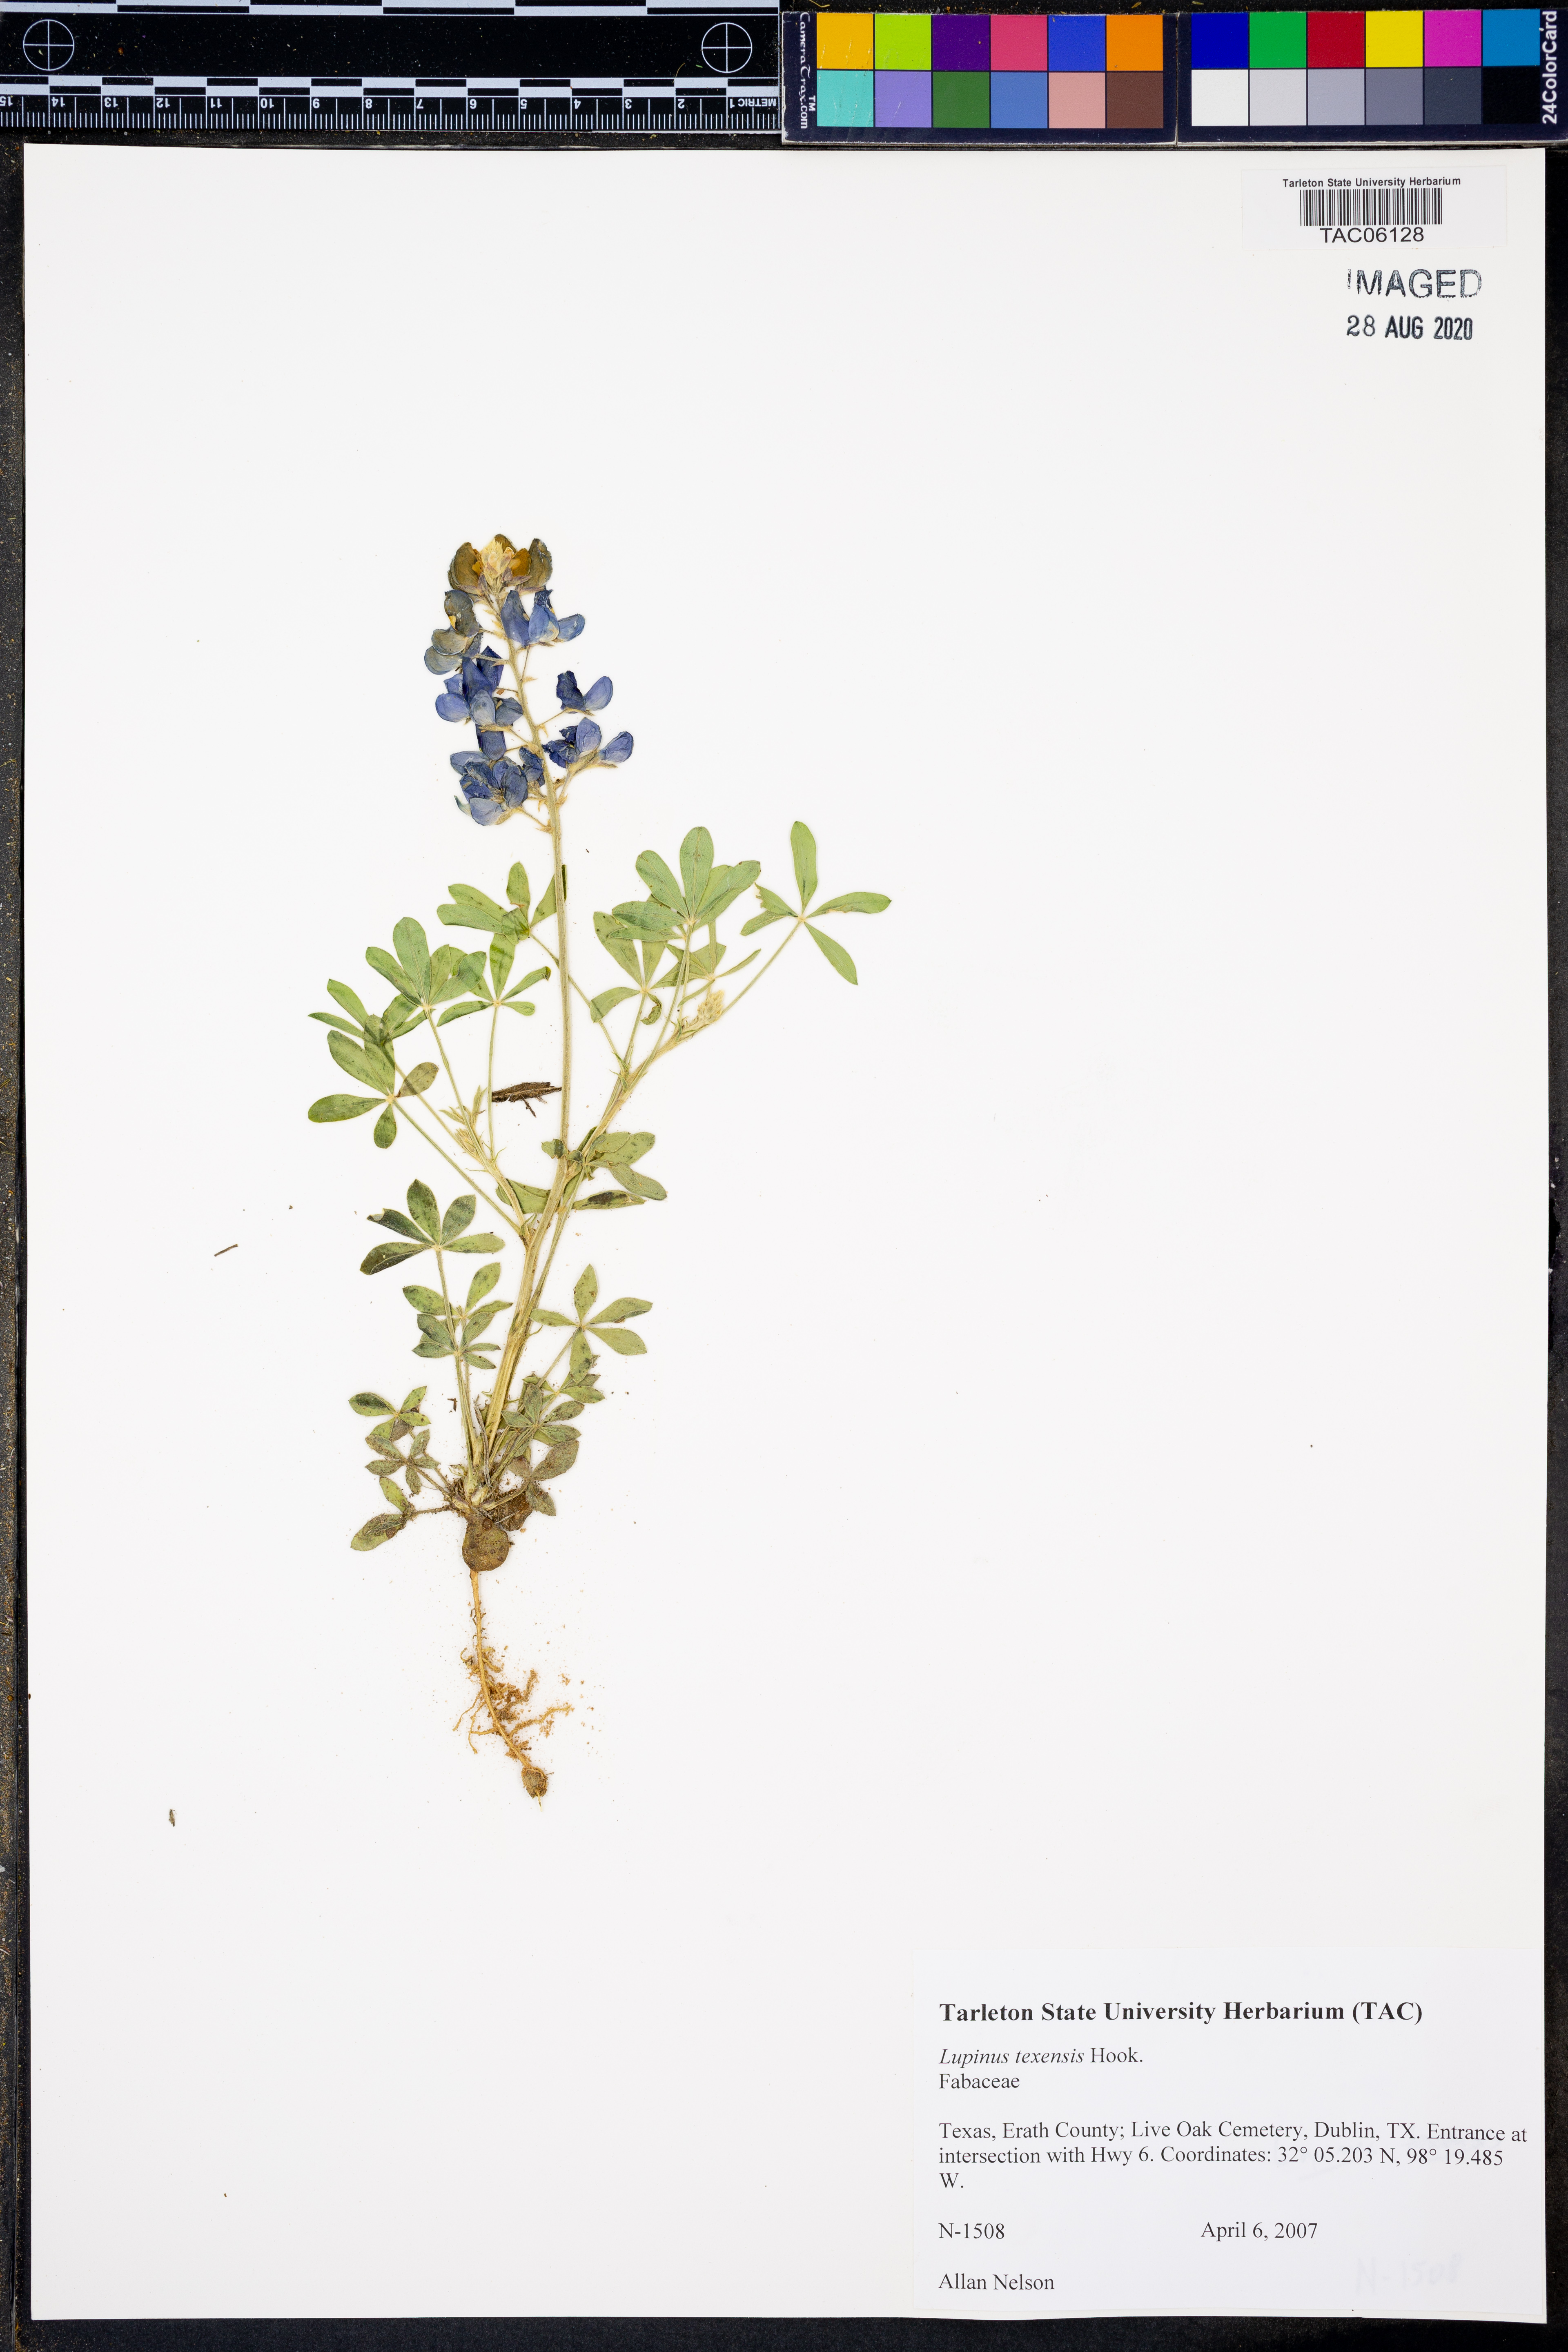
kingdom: Plantae
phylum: Tracheophyta
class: Magnoliopsida
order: Fabales
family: Fabaceae
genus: Lupinus
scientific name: Lupinus texensis
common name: Texas bluebonnet
